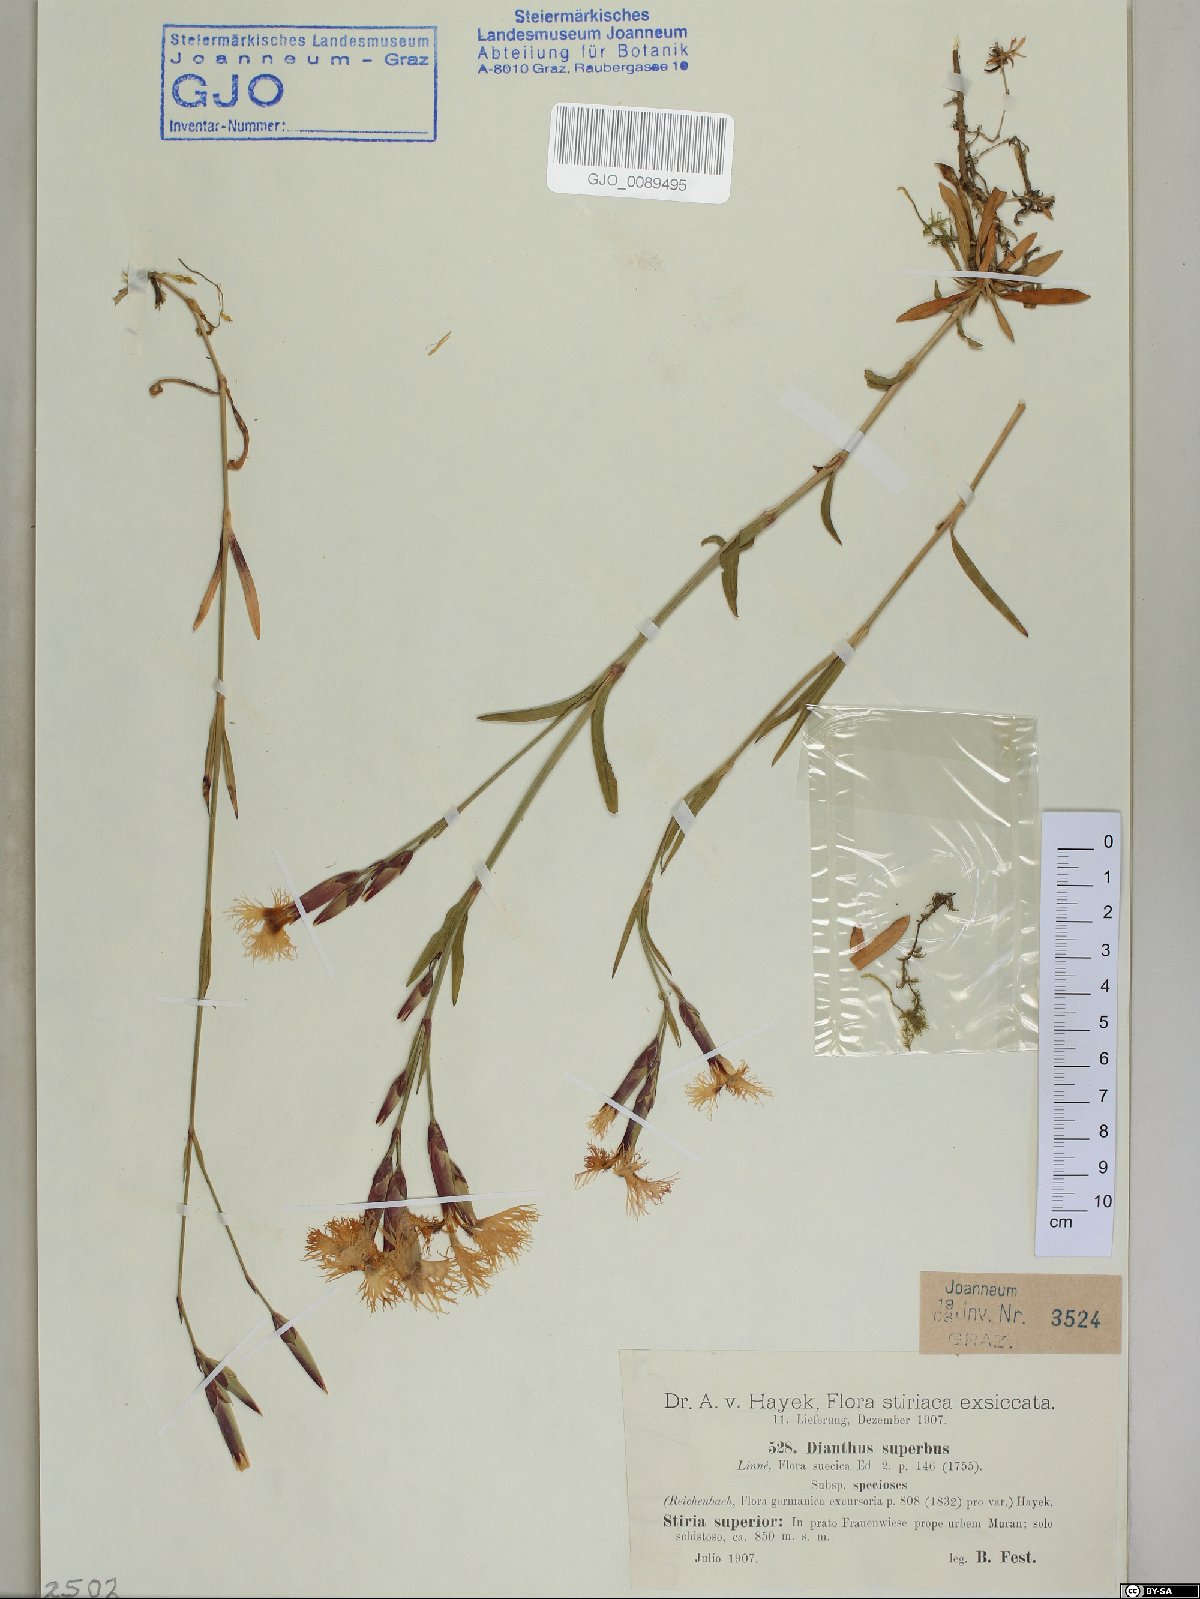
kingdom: Plantae
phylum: Tracheophyta
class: Magnoliopsida
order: Caryophyllales
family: Caryophyllaceae
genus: Dianthus
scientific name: Dianthus superbus
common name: Fringed pink
